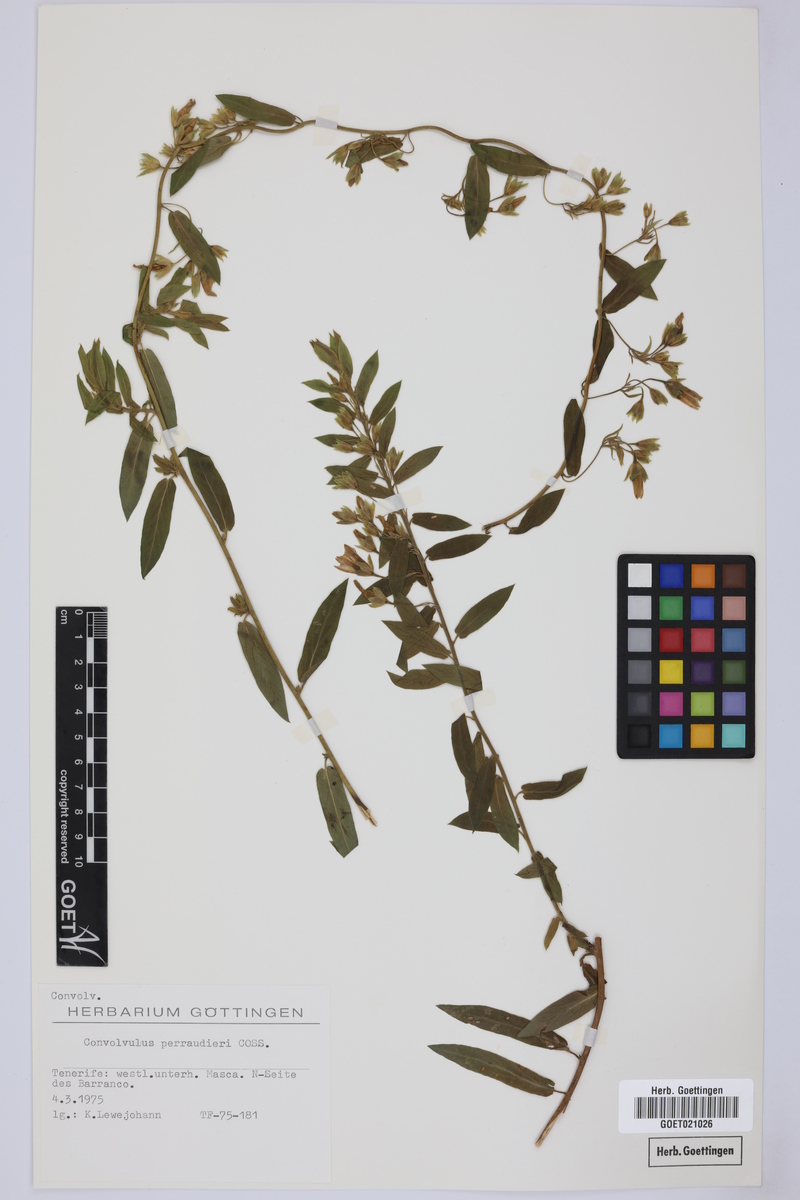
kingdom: Plantae
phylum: Tracheophyta
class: Magnoliopsida
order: Solanales
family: Convolvulaceae
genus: Convolvulus
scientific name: Convolvulus perraudieri
